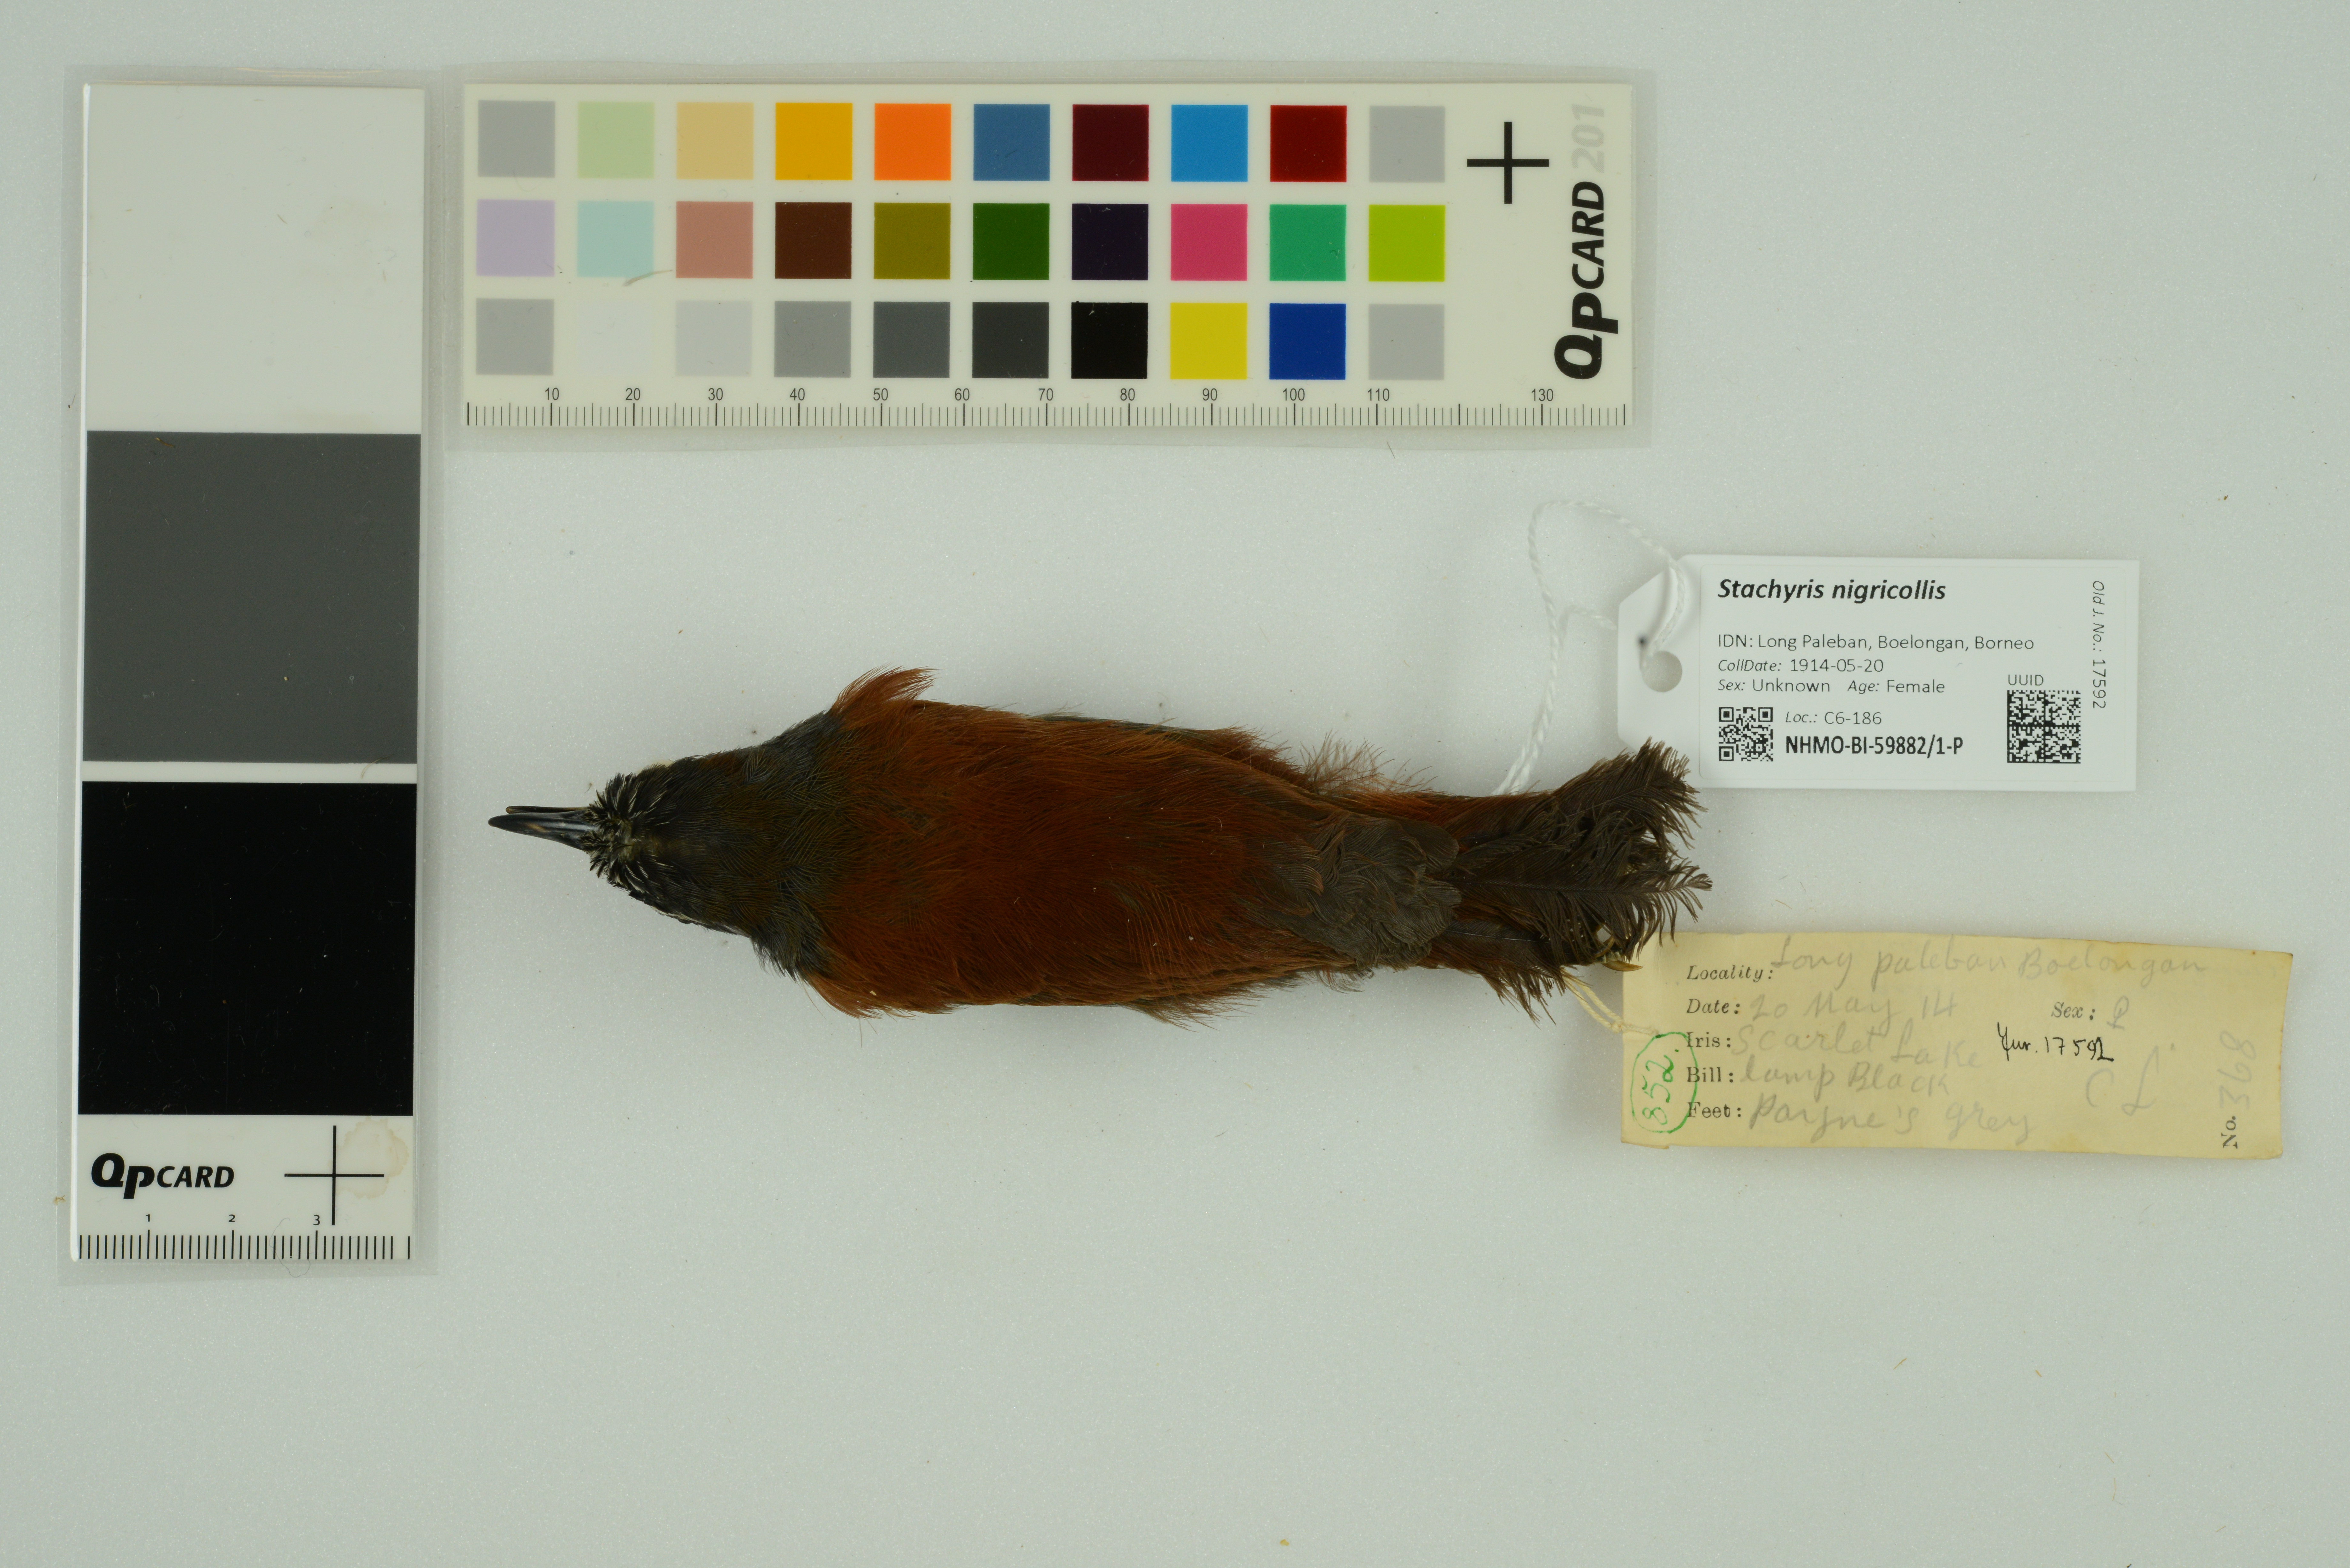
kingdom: Animalia
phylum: Chordata
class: Aves
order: Passeriformes
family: Timaliidae
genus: Stachyris
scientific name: Stachyris nigricollis
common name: Black-throated babbler
